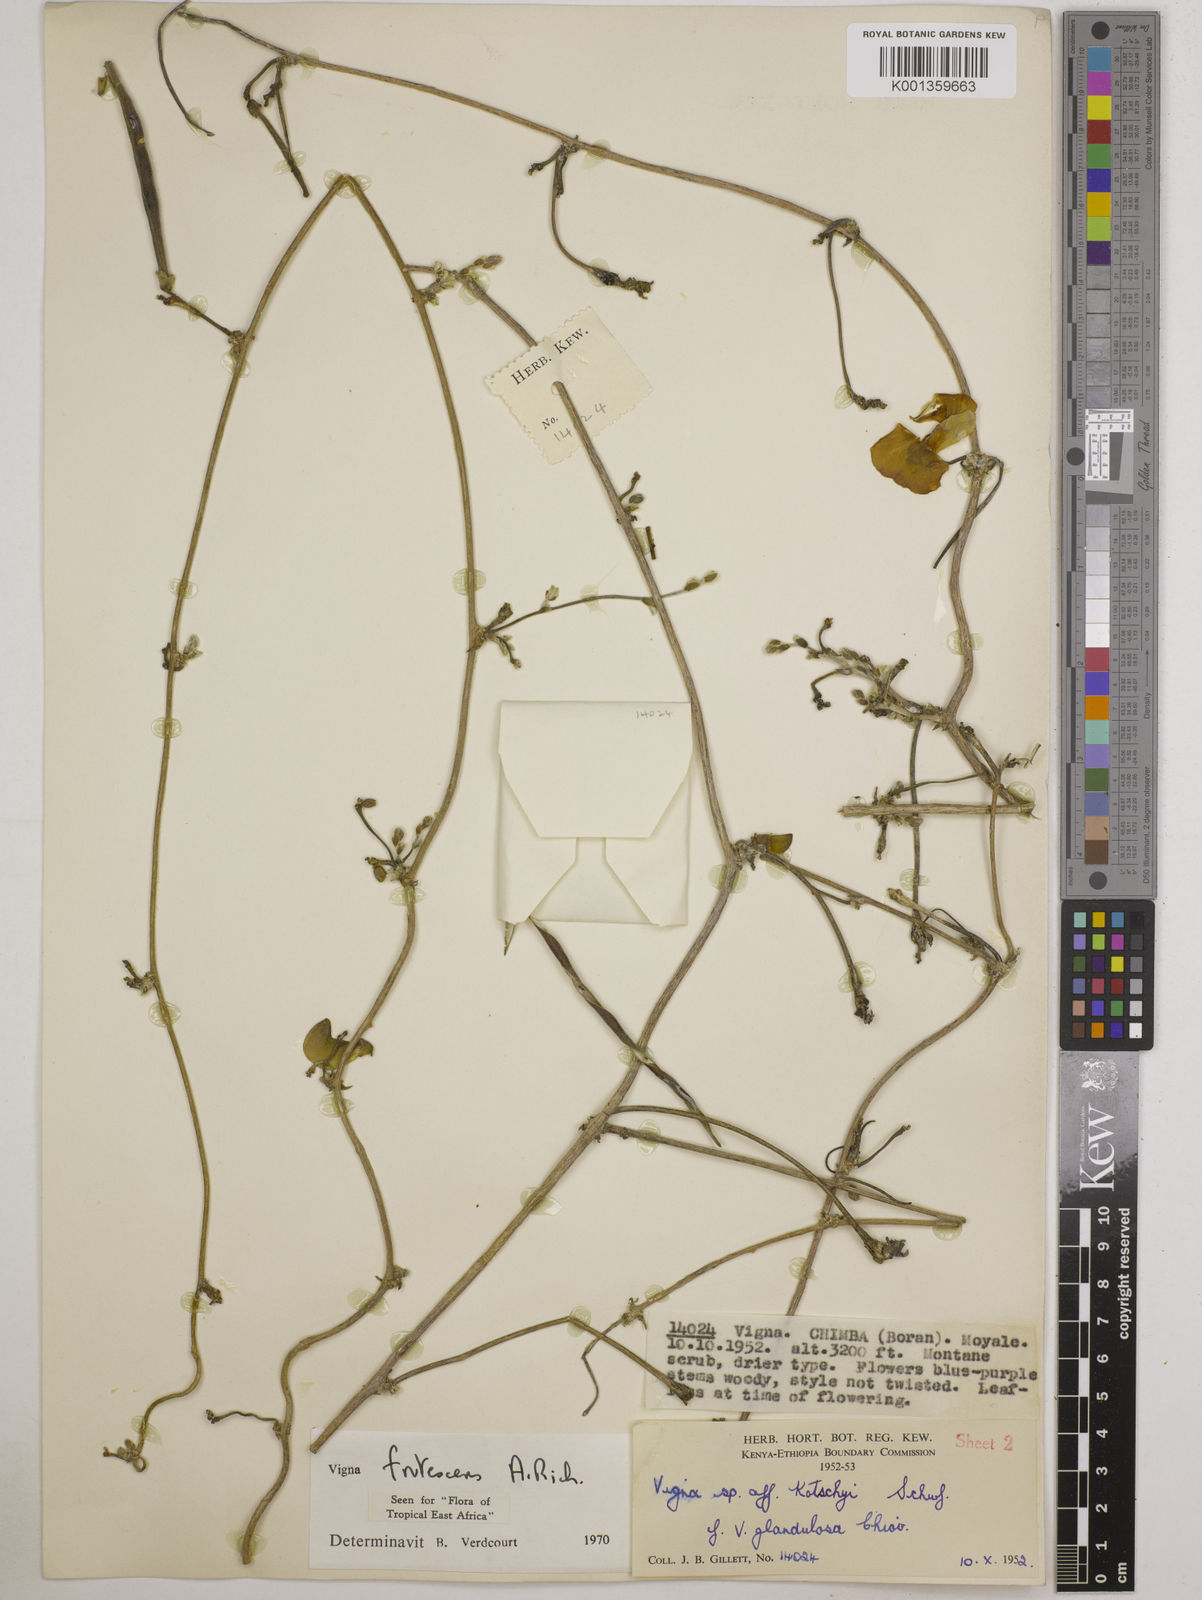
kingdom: Plantae
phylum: Tracheophyta
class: Magnoliopsida
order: Fabales
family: Fabaceae
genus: Vigna
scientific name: Vigna frutescens
